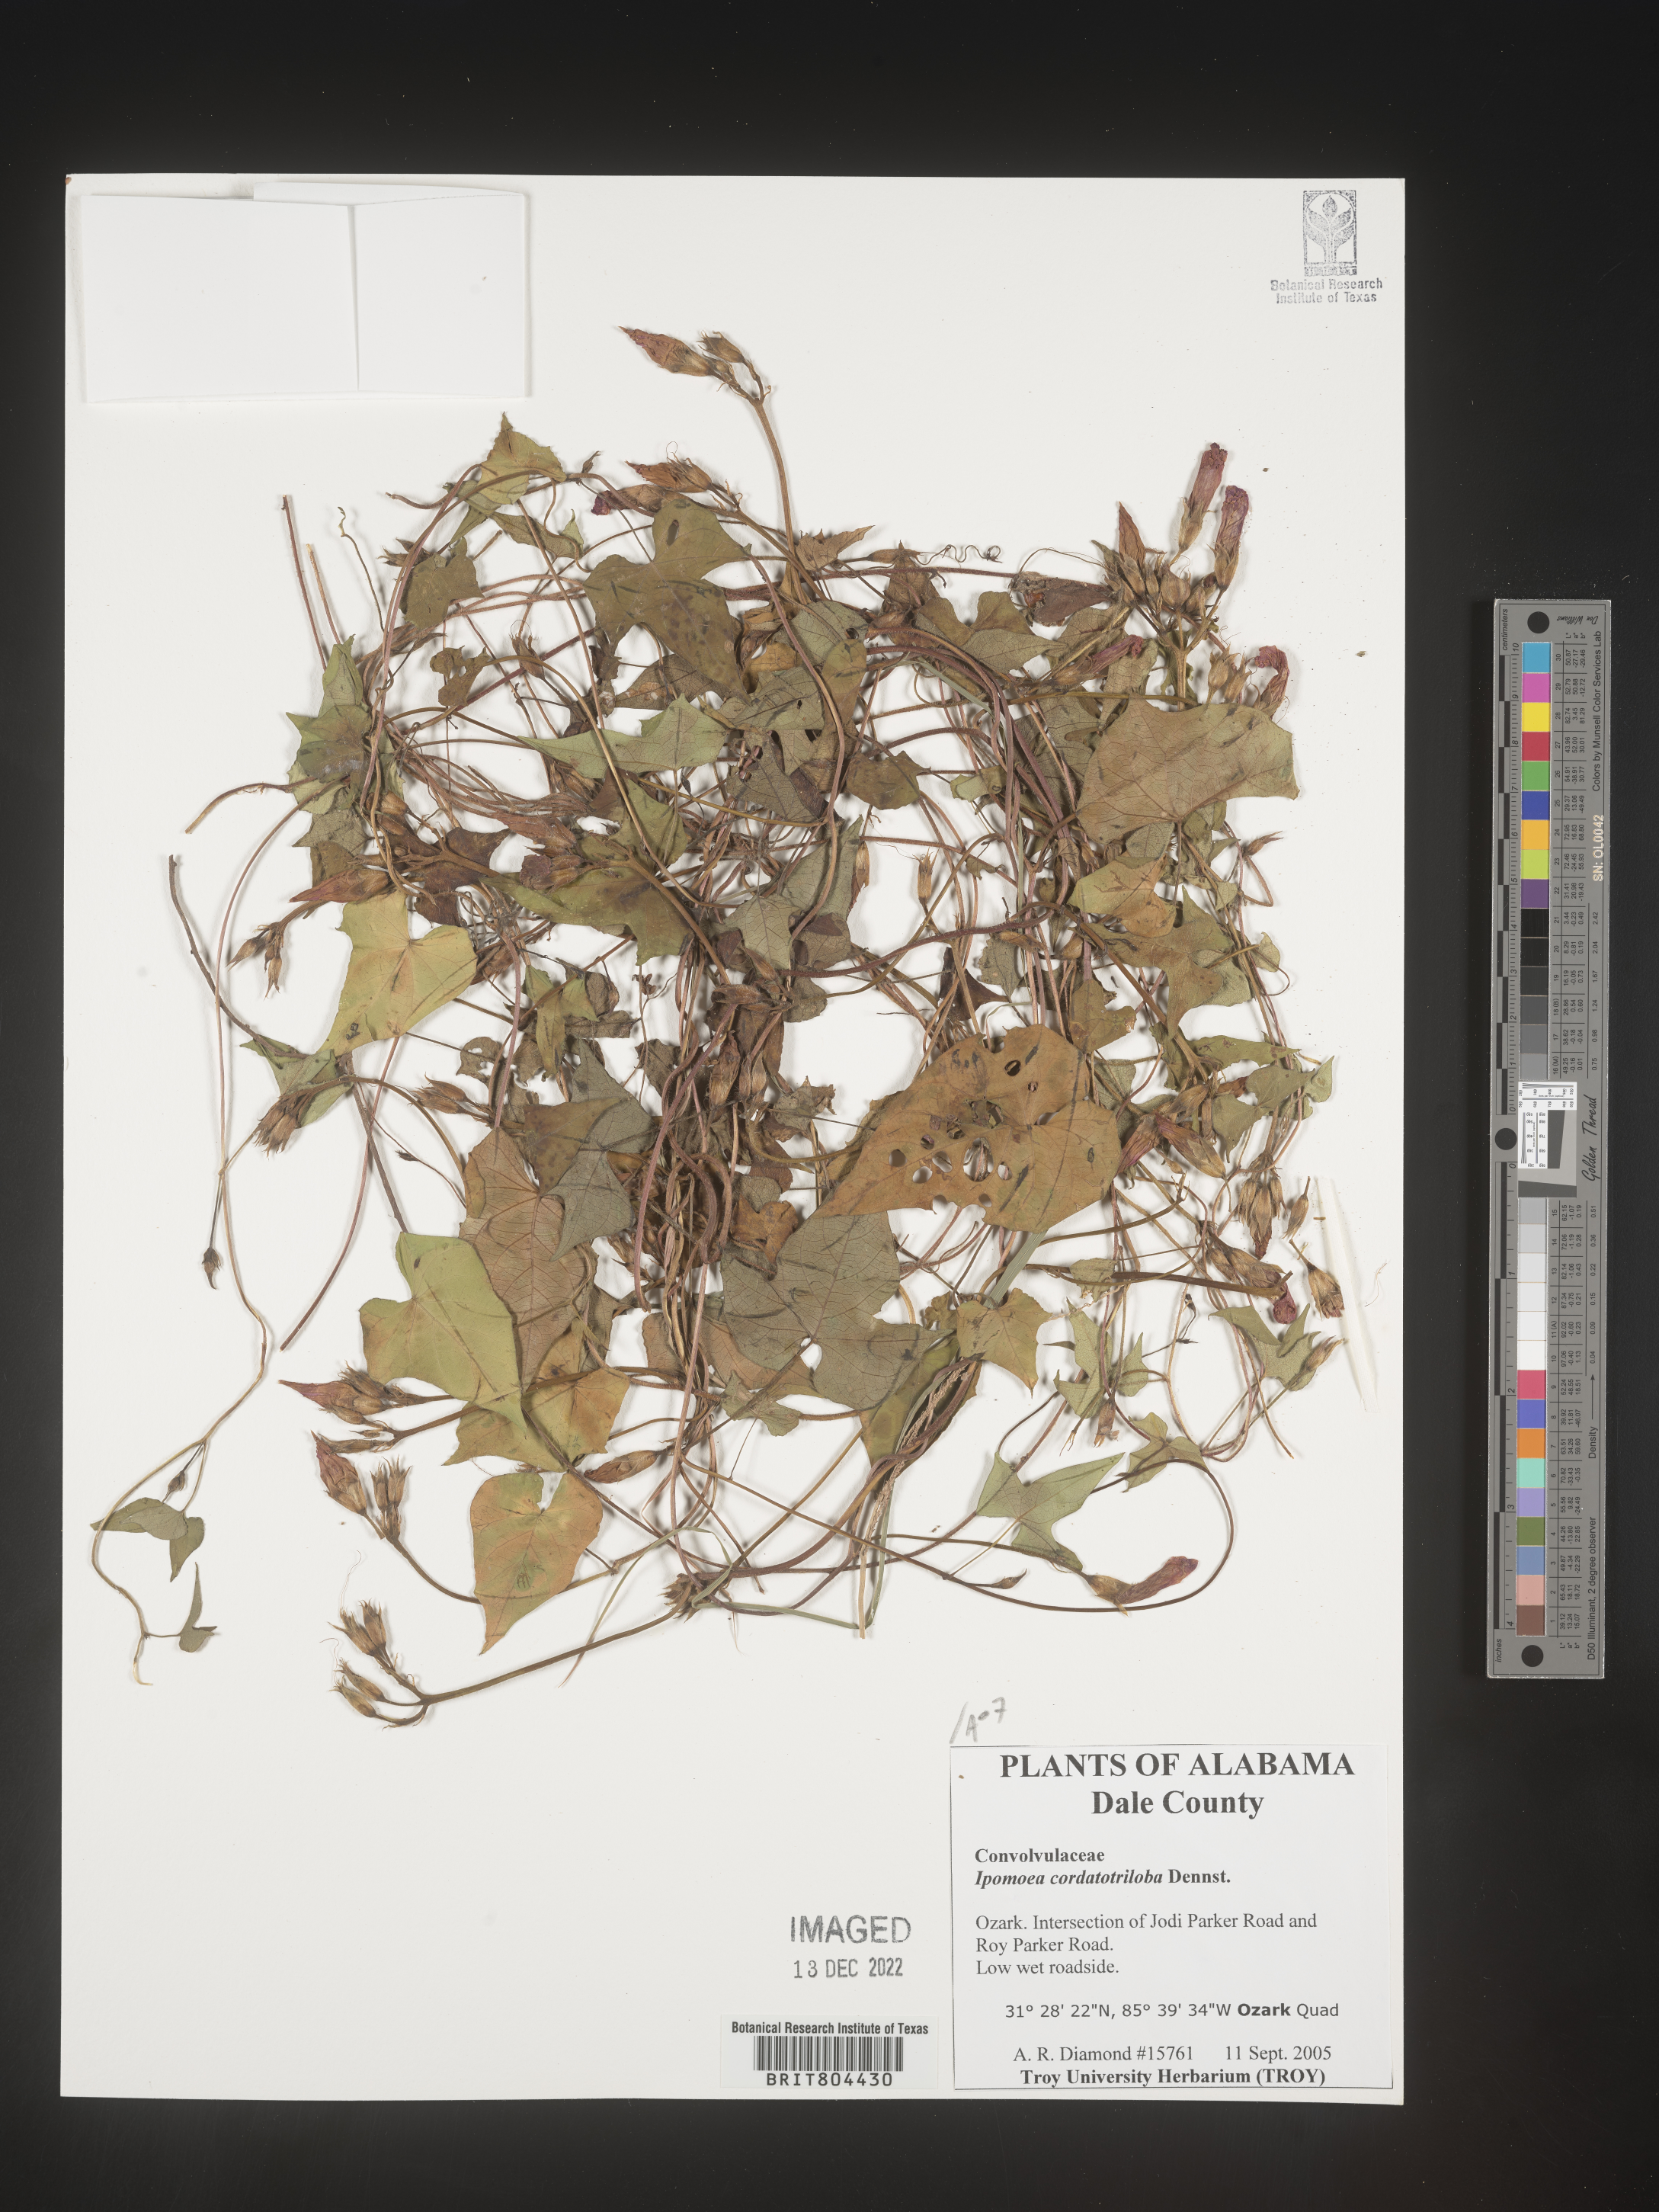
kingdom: Plantae
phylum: Tracheophyta
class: Magnoliopsida
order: Solanales
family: Convolvulaceae
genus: Ipomoea
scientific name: Ipomoea cordatotriloba
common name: Cotton morning glory
